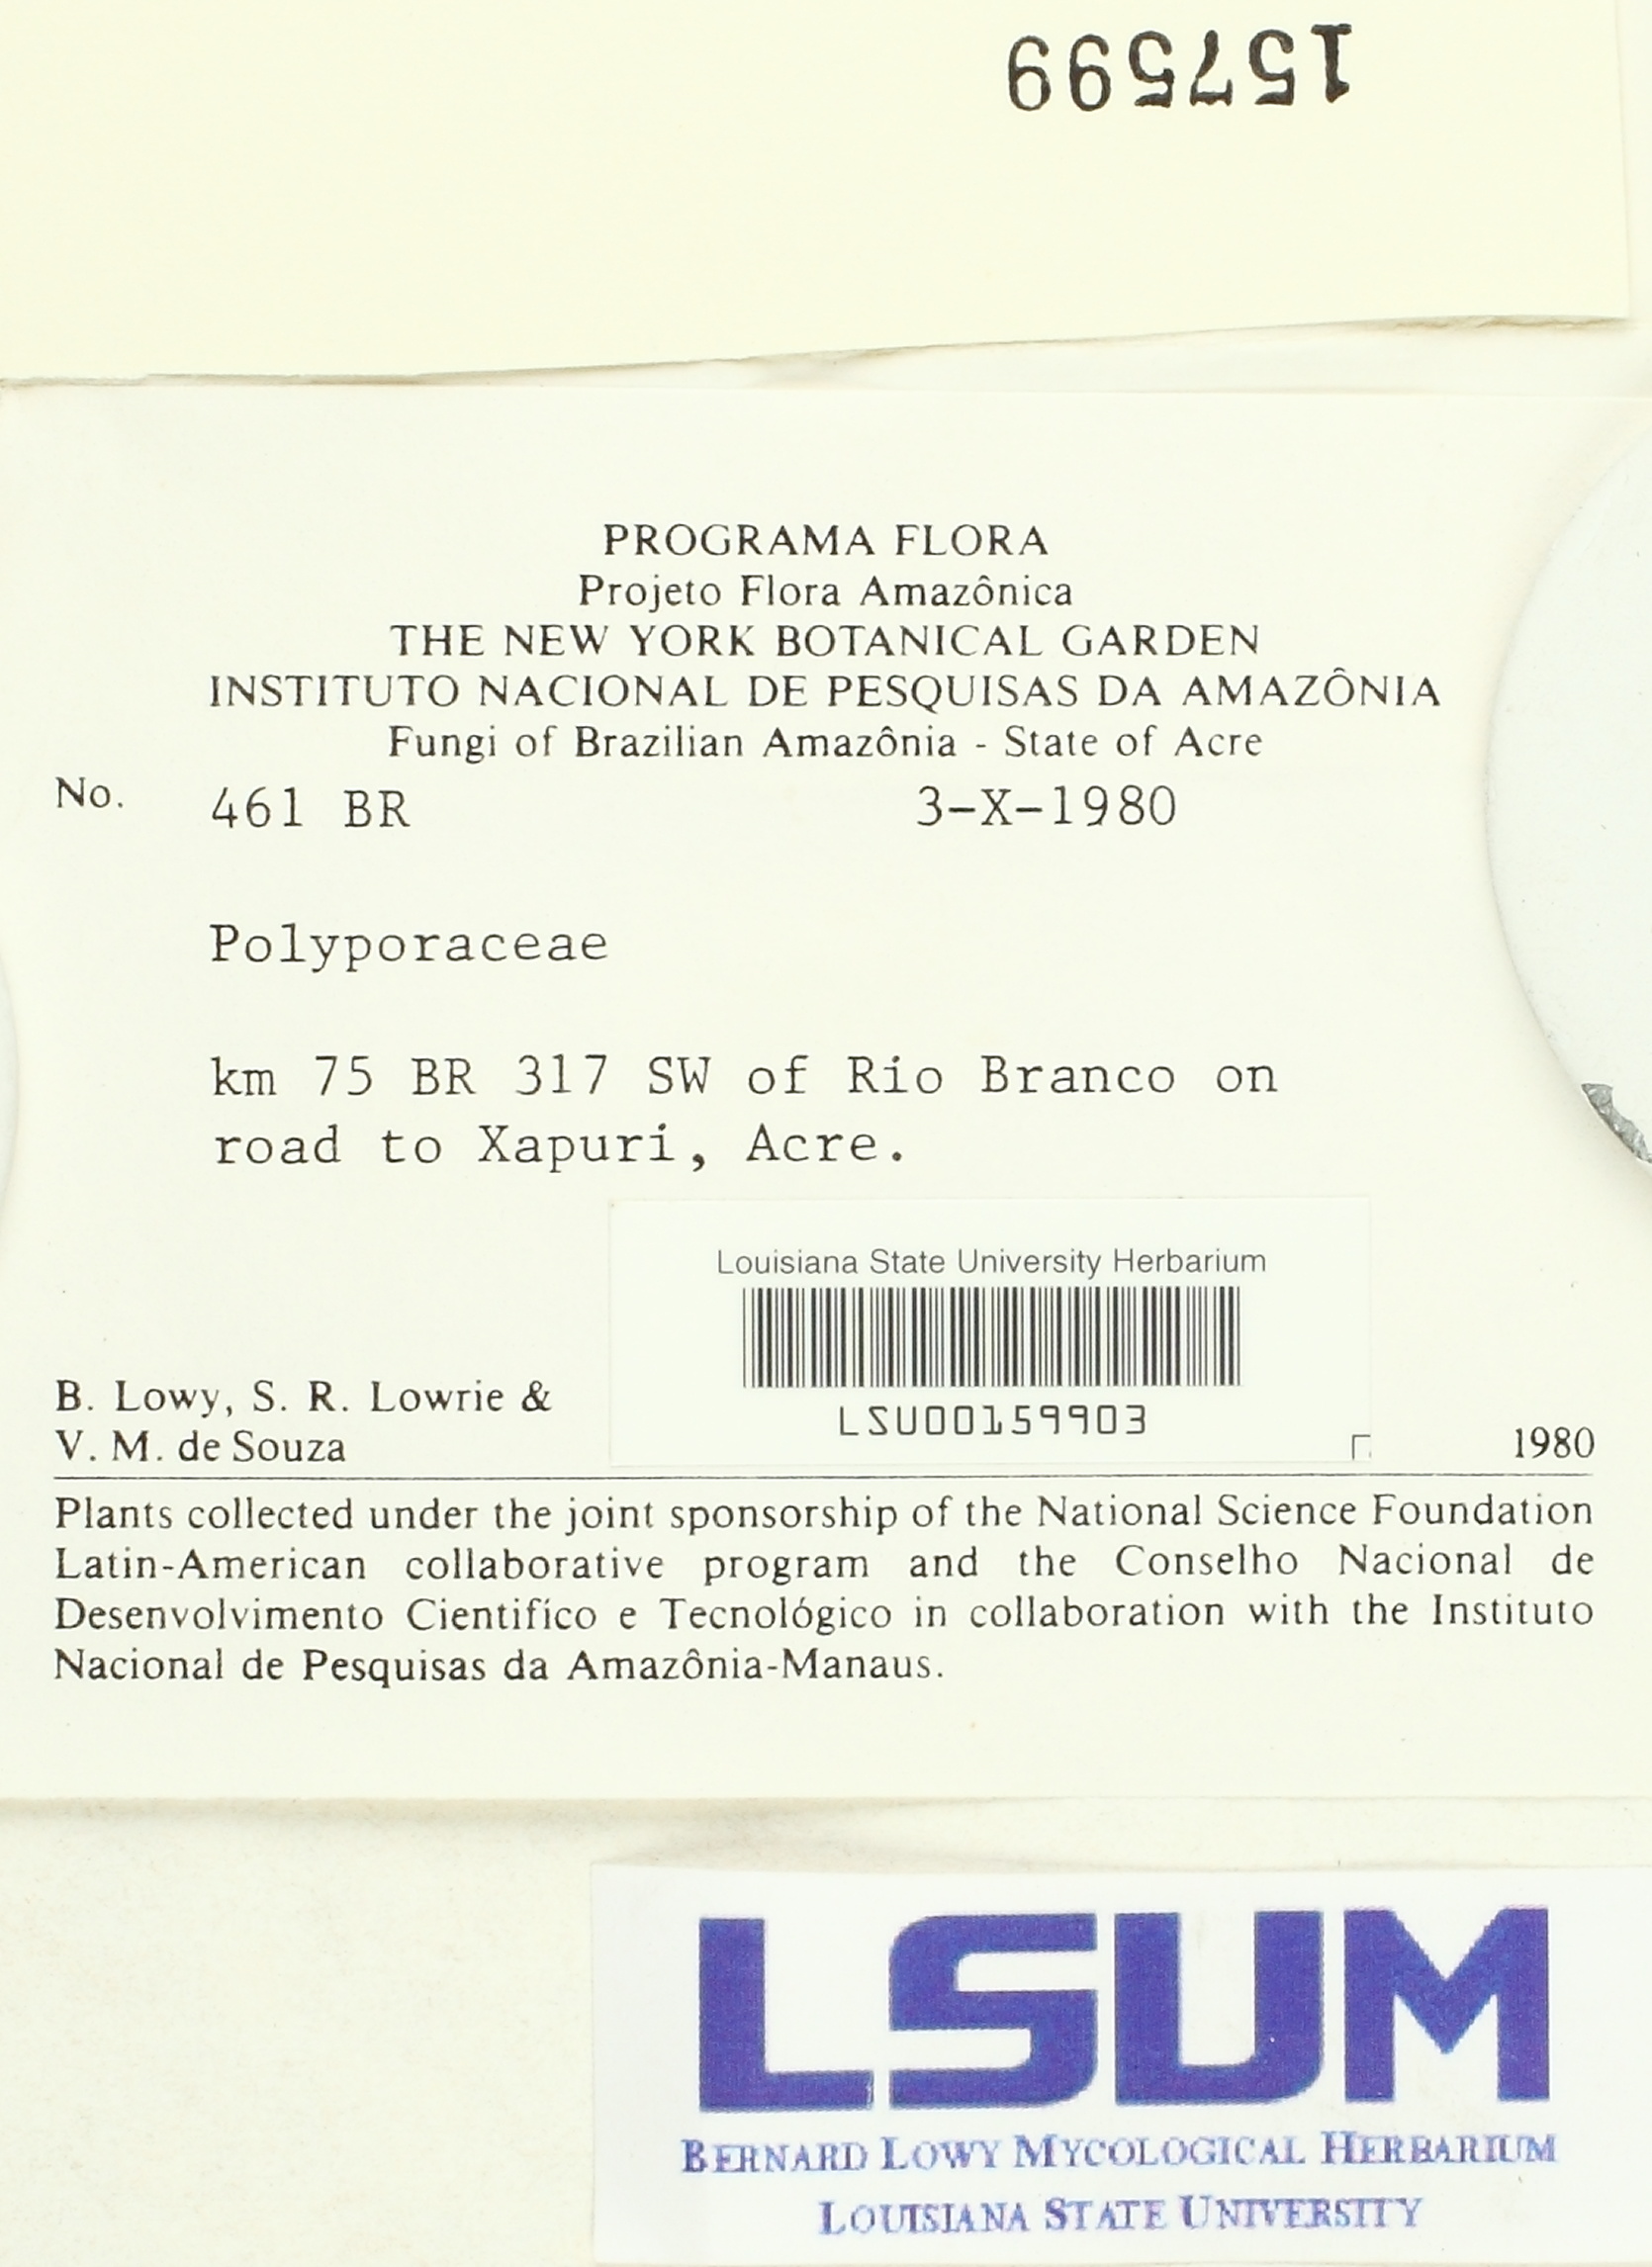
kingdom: Fungi
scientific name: Fungi
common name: Fungi
